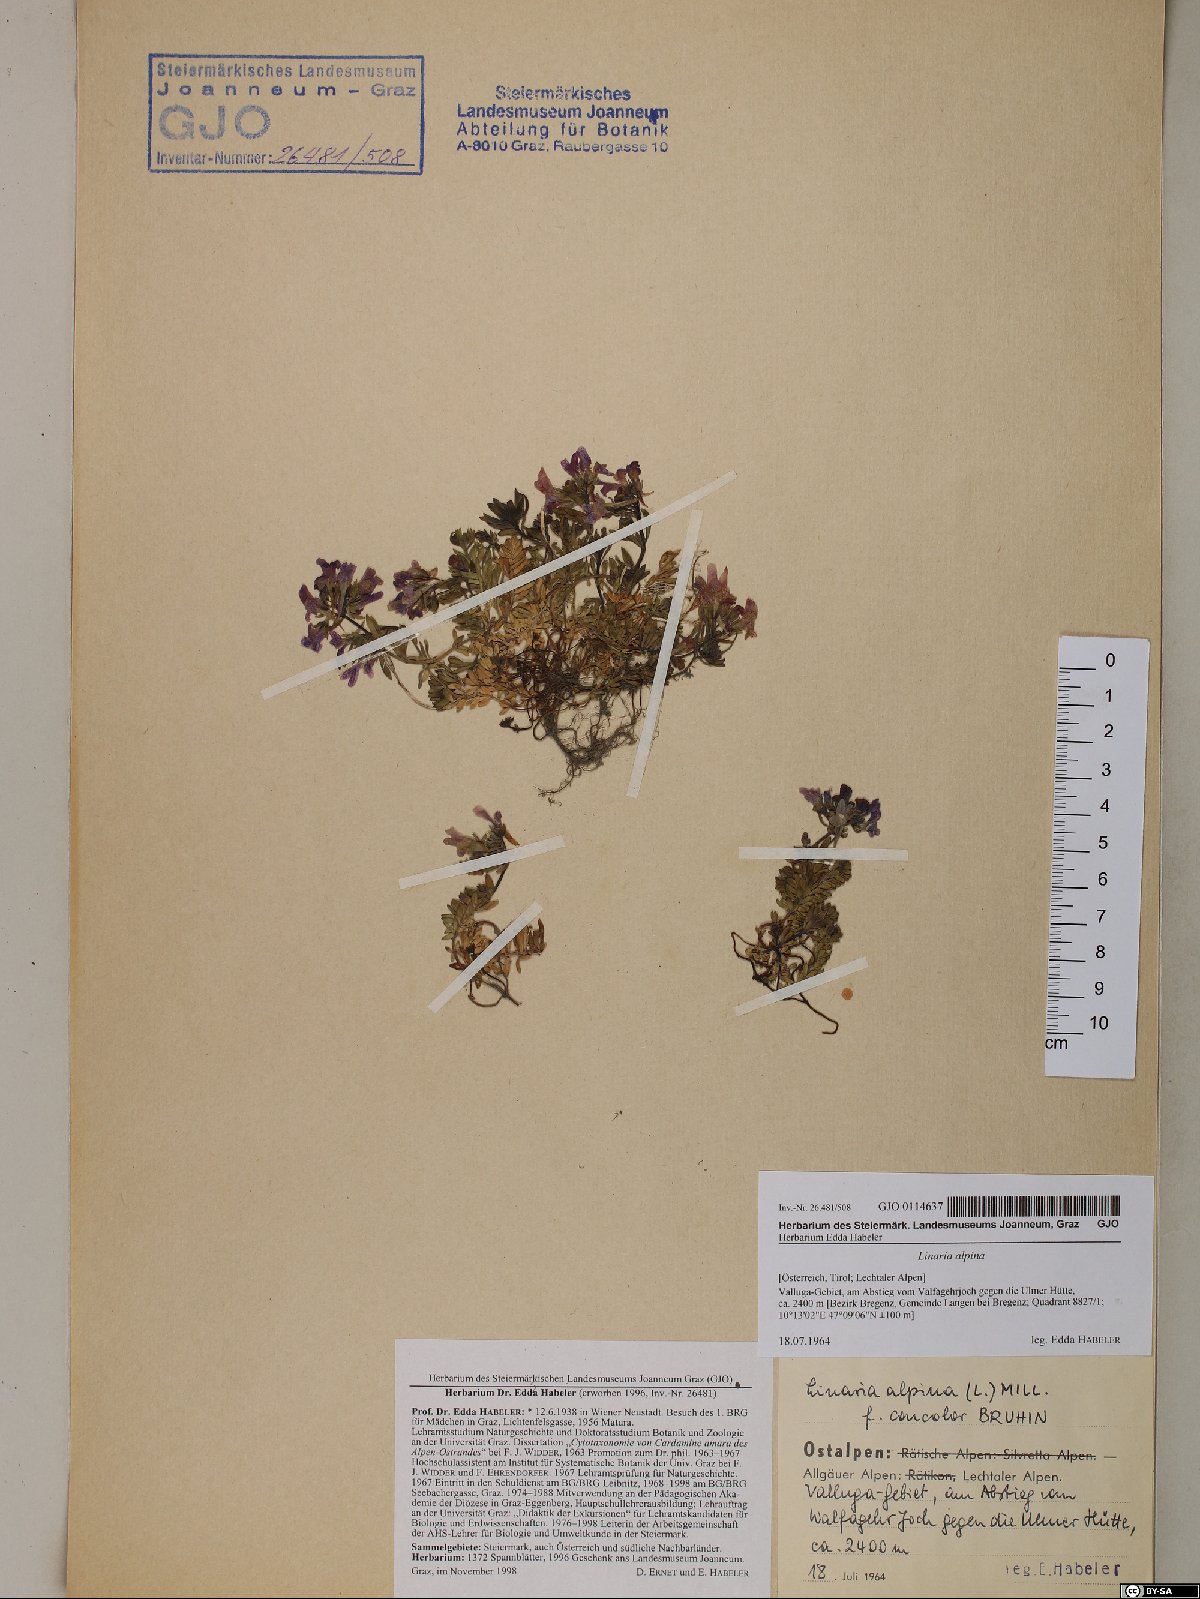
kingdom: Plantae
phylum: Tracheophyta
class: Magnoliopsida
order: Lamiales
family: Plantaginaceae
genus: Linaria
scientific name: Linaria alpina
